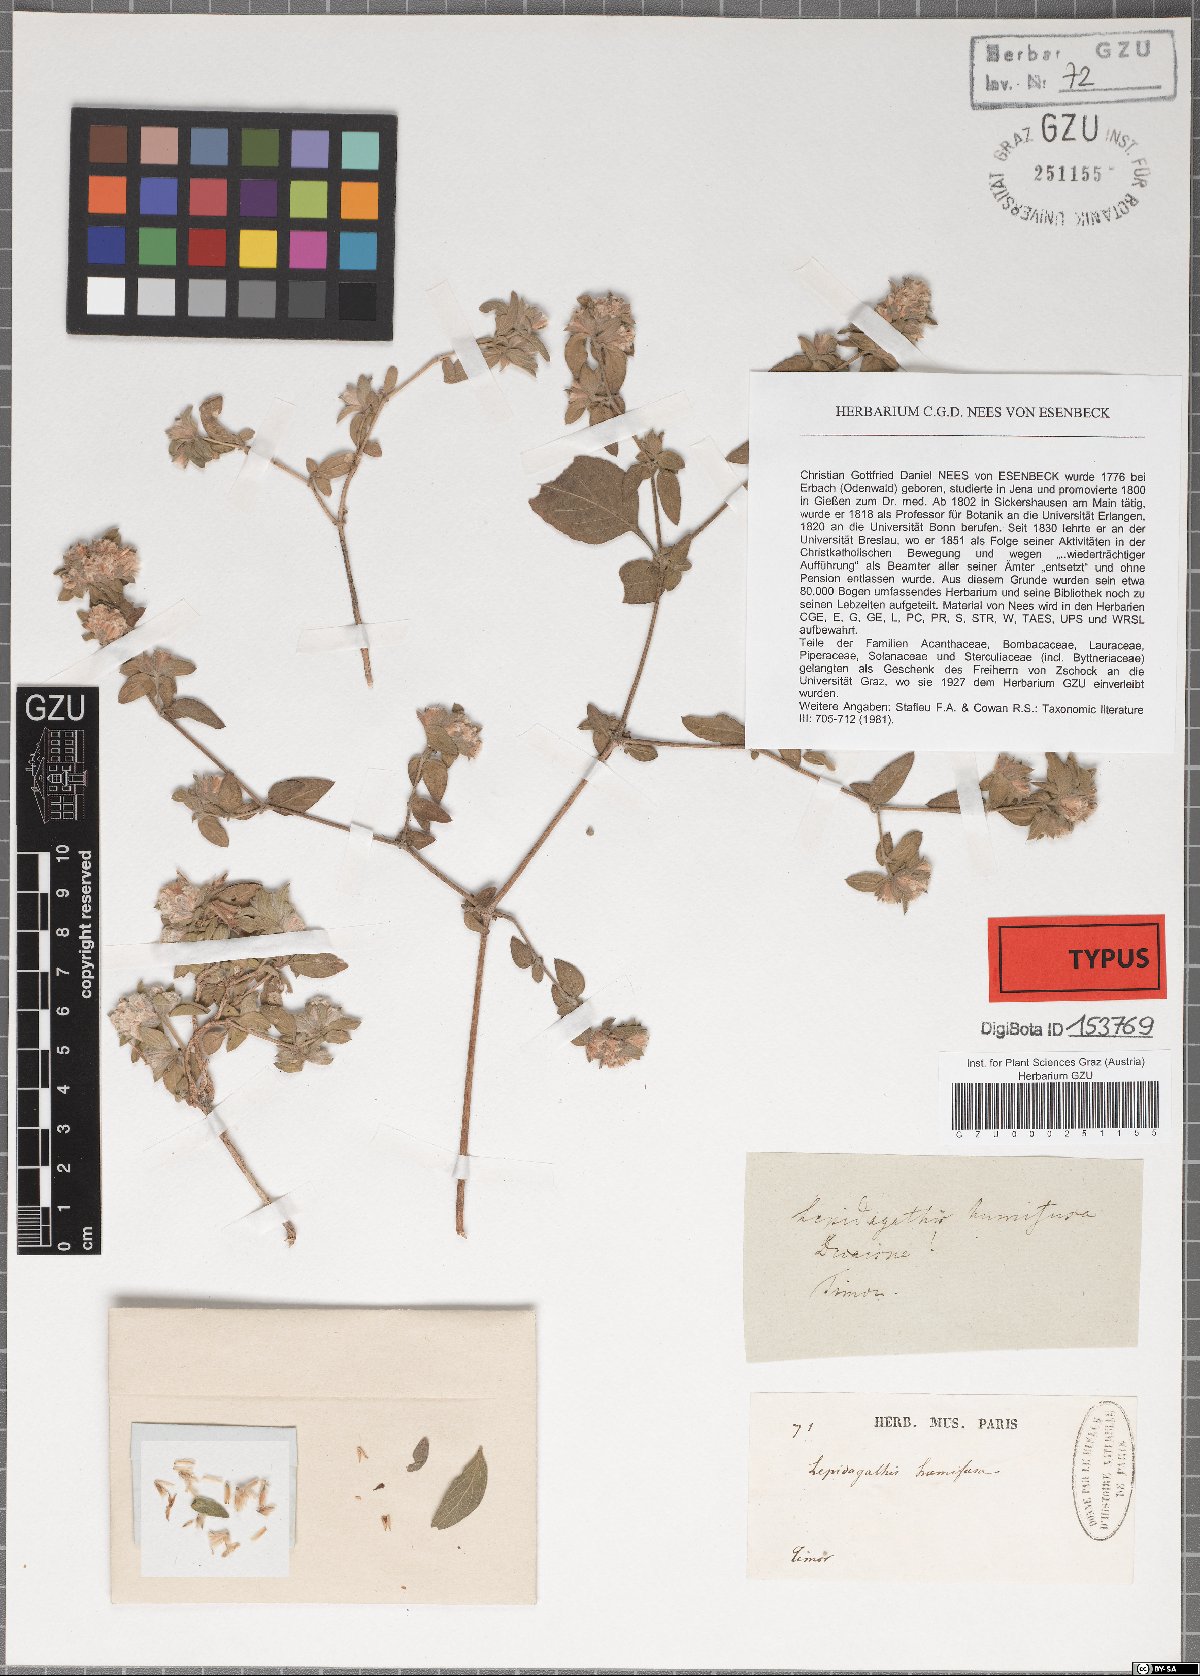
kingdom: Plantae
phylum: Tracheophyta
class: Magnoliopsida
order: Lamiales
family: Acanthaceae
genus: Lepidagathis
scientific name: Lepidagathis humifusa
